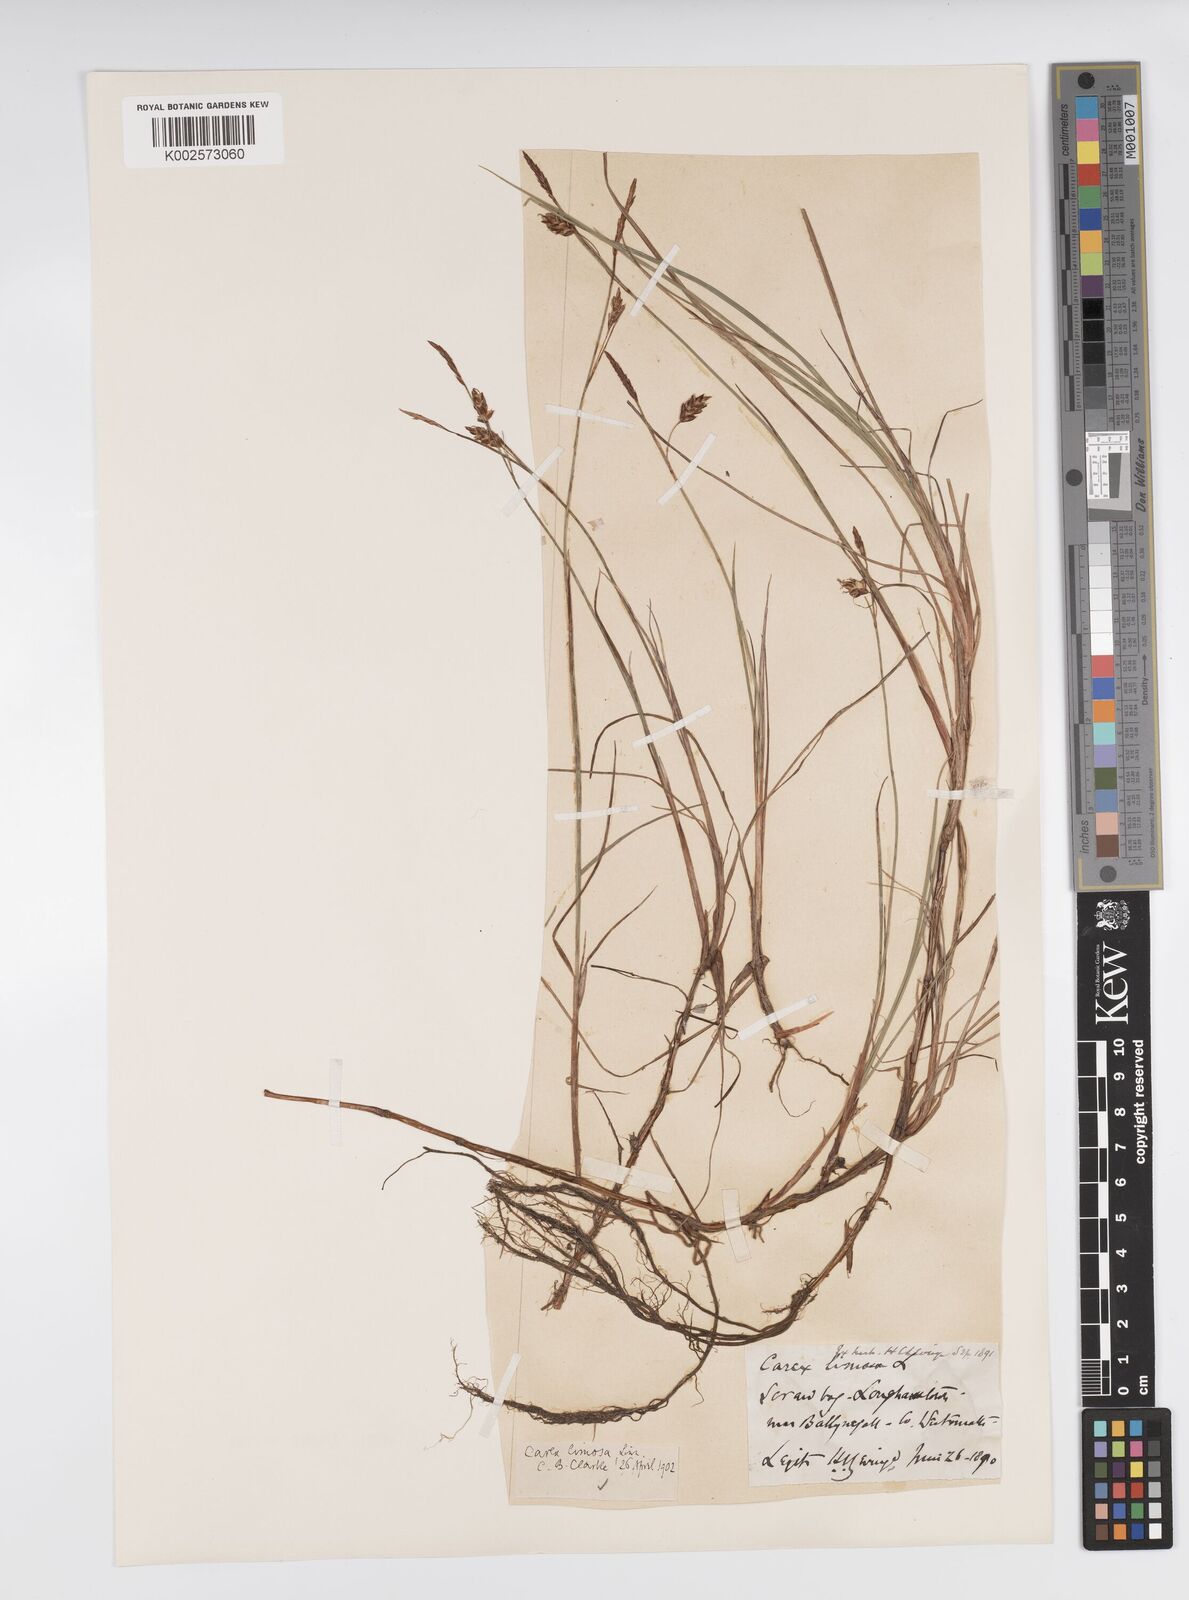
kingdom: Plantae
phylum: Tracheophyta
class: Liliopsida
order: Poales
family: Cyperaceae
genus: Carex
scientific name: Carex limosa
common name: Bog sedge
